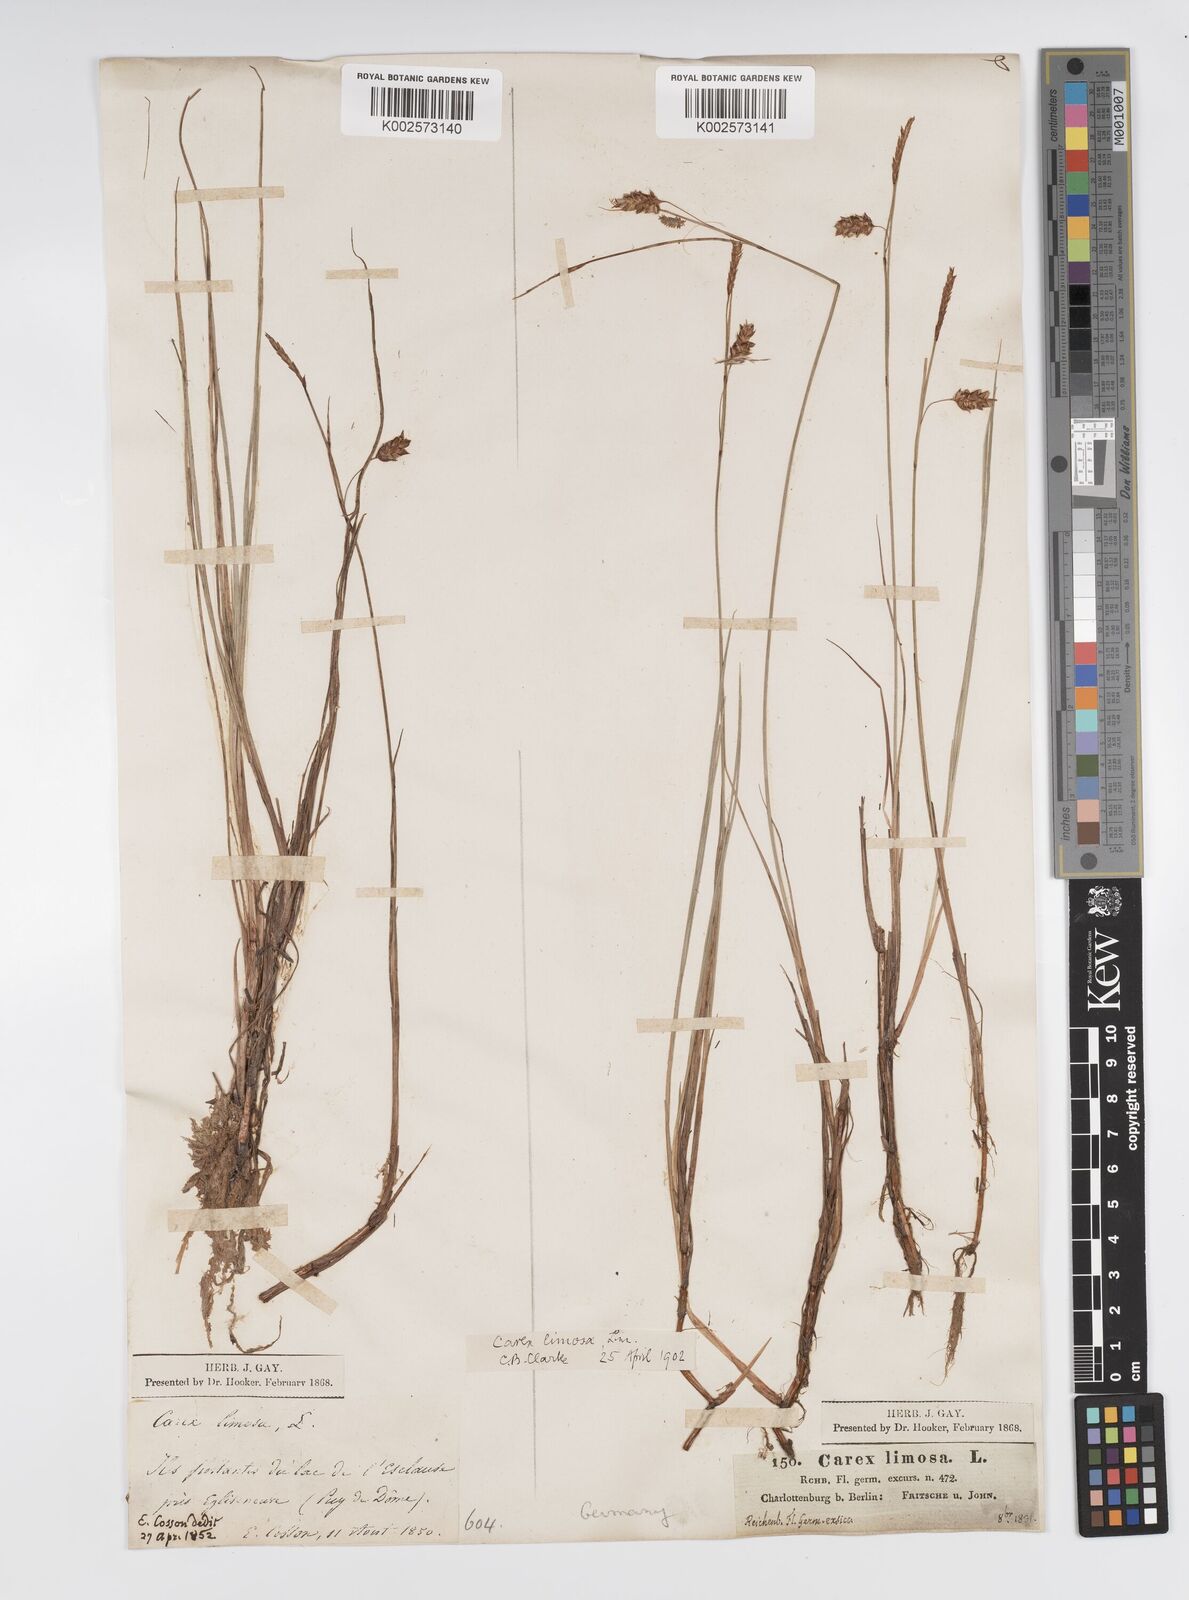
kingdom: Plantae
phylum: Tracheophyta
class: Liliopsida
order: Poales
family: Cyperaceae
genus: Carex
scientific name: Carex limosa
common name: Bog sedge
